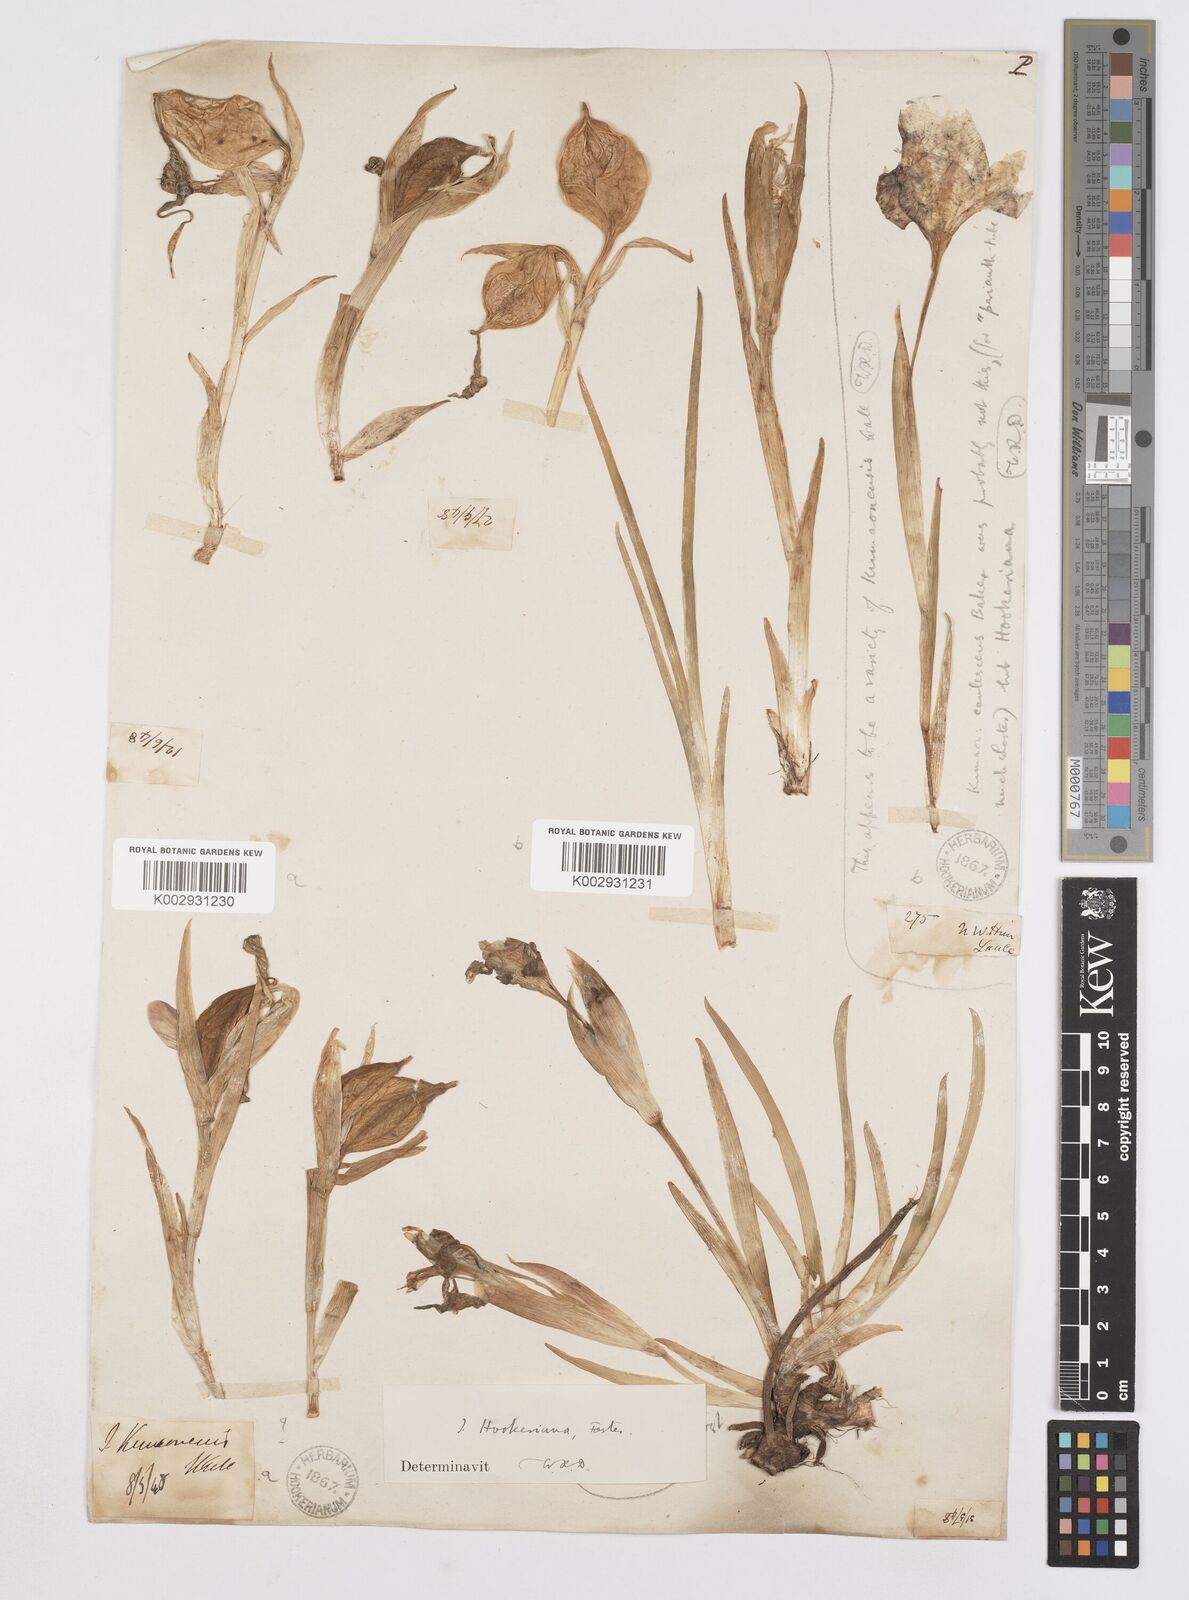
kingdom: Plantae
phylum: Tracheophyta
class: Liliopsida
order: Asparagales
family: Iridaceae
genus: Iris
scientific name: Iris hookeriana
